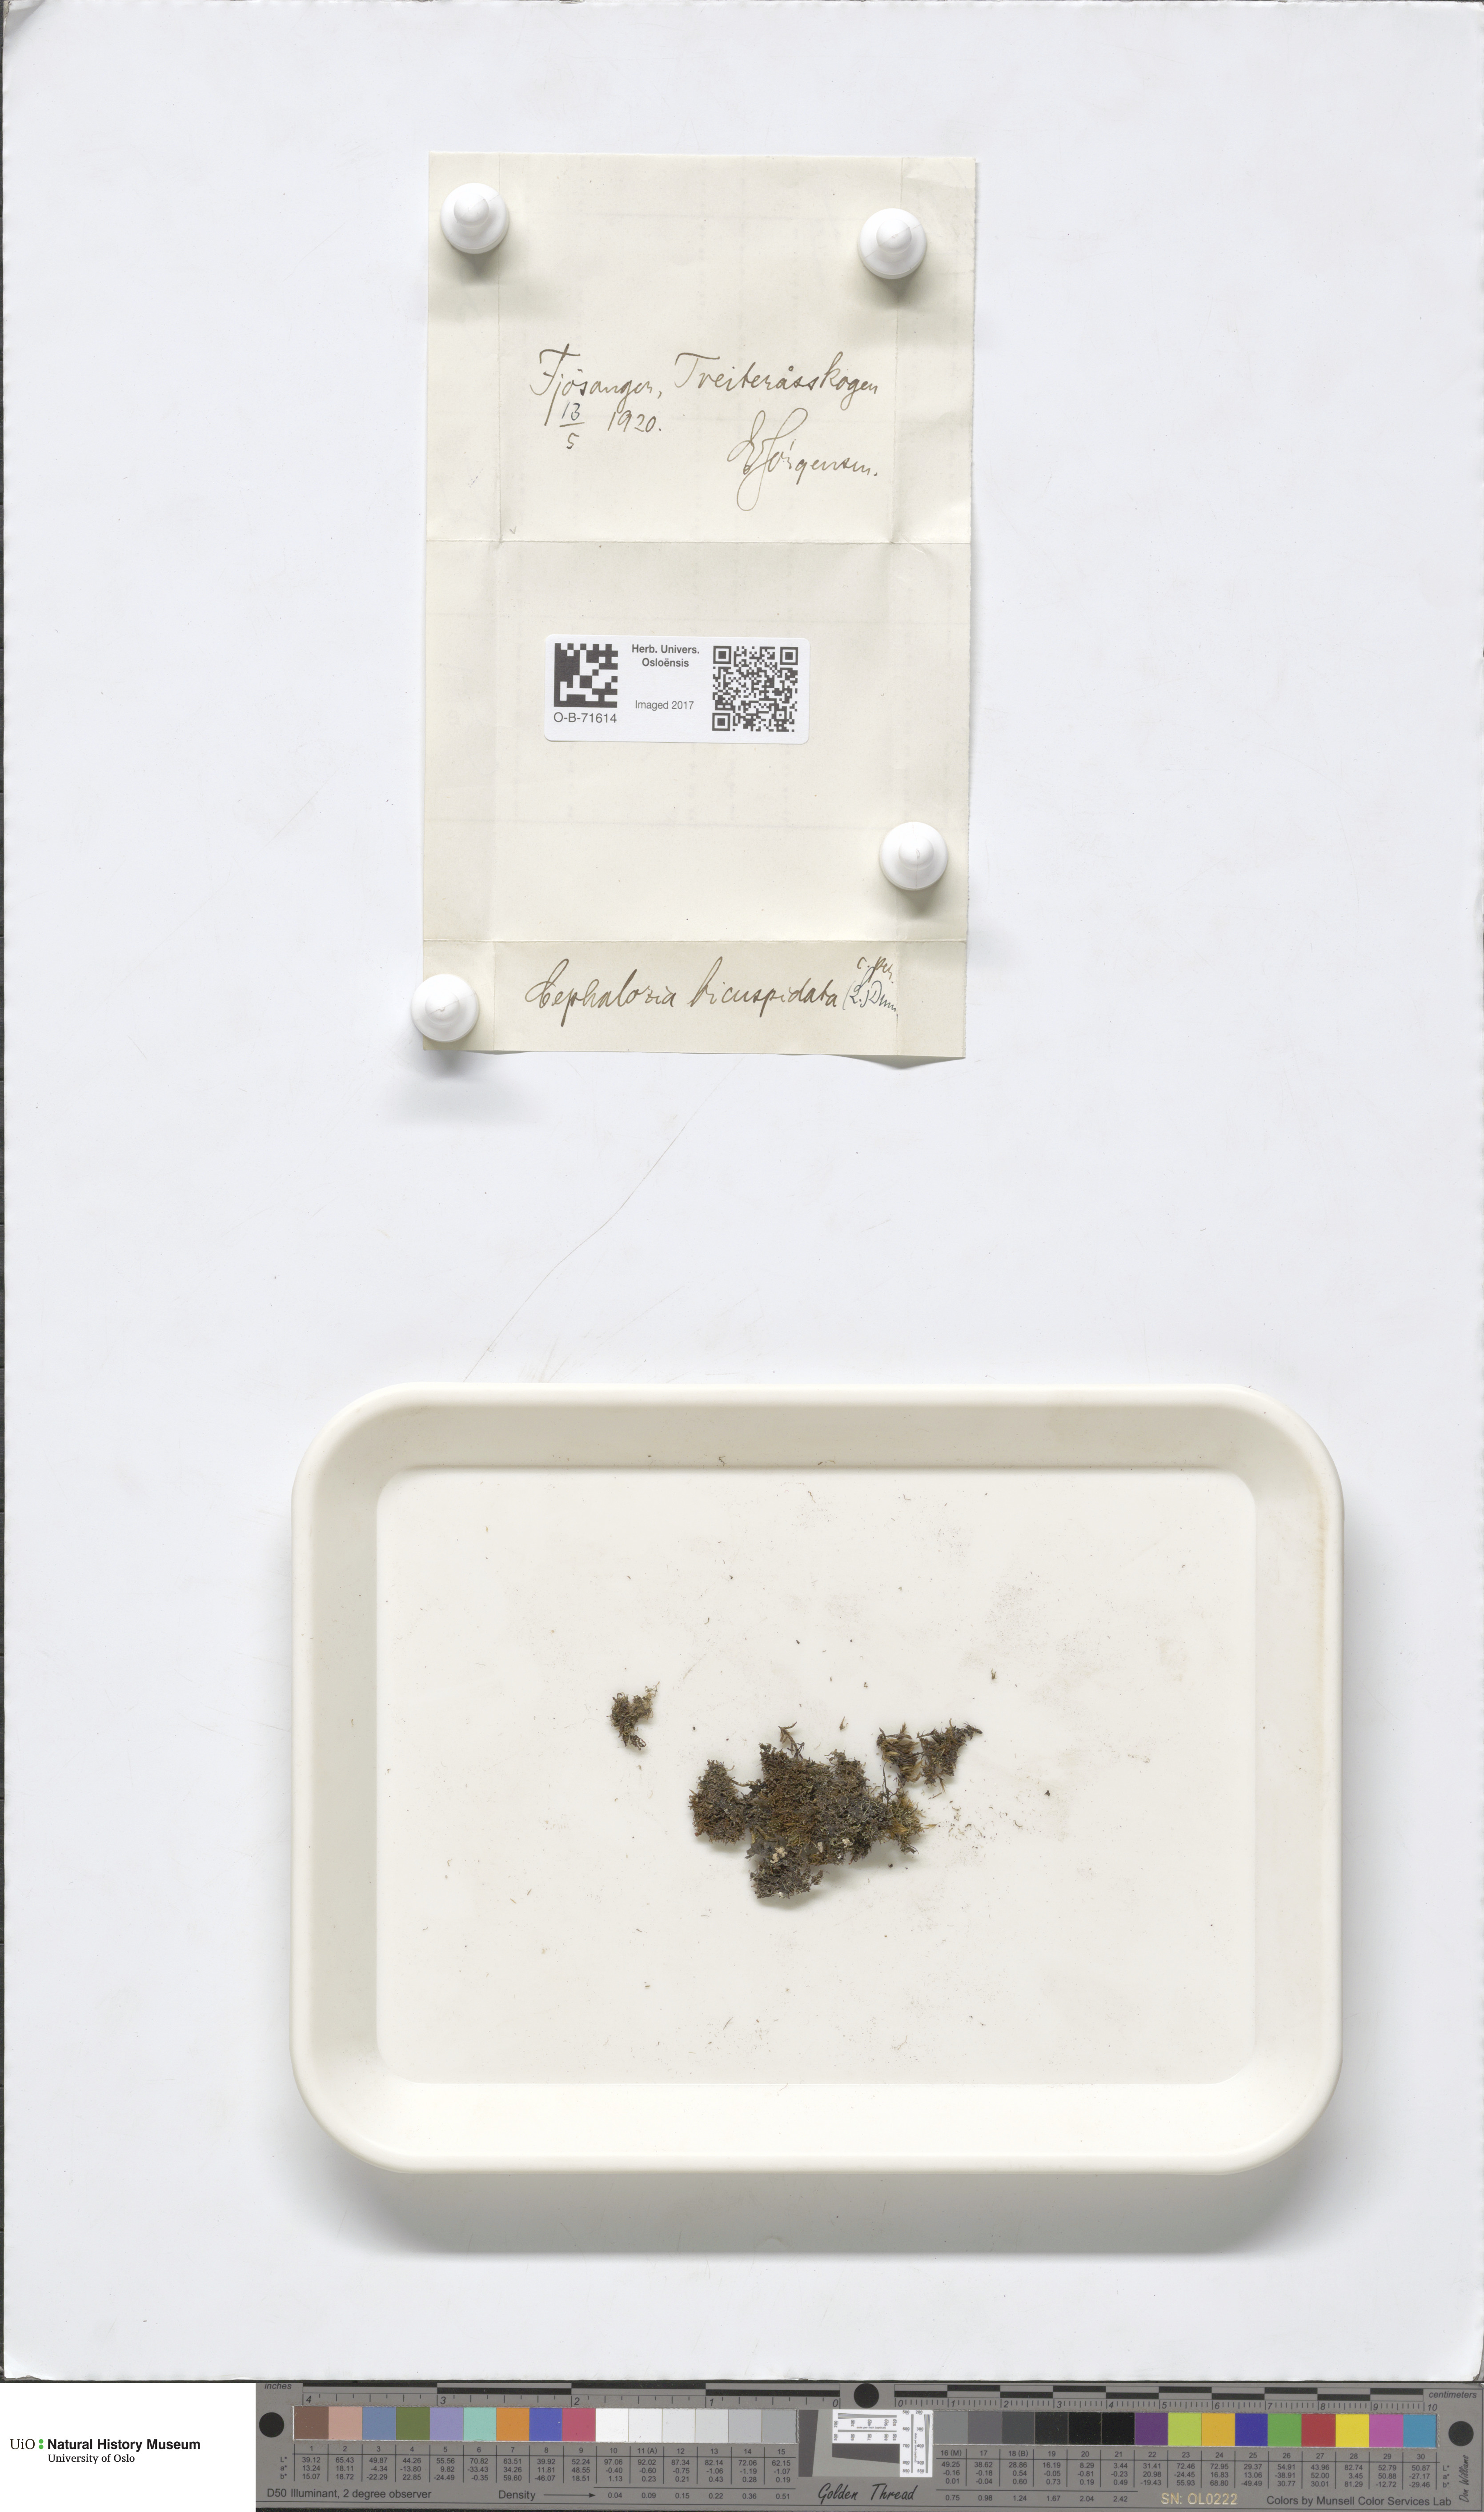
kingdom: Plantae
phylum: Marchantiophyta
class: Jungermanniopsida
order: Jungermanniales
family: Cephaloziaceae
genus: Cephalozia
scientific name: Cephalozia bicuspidata
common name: Two-horned pincerwort
